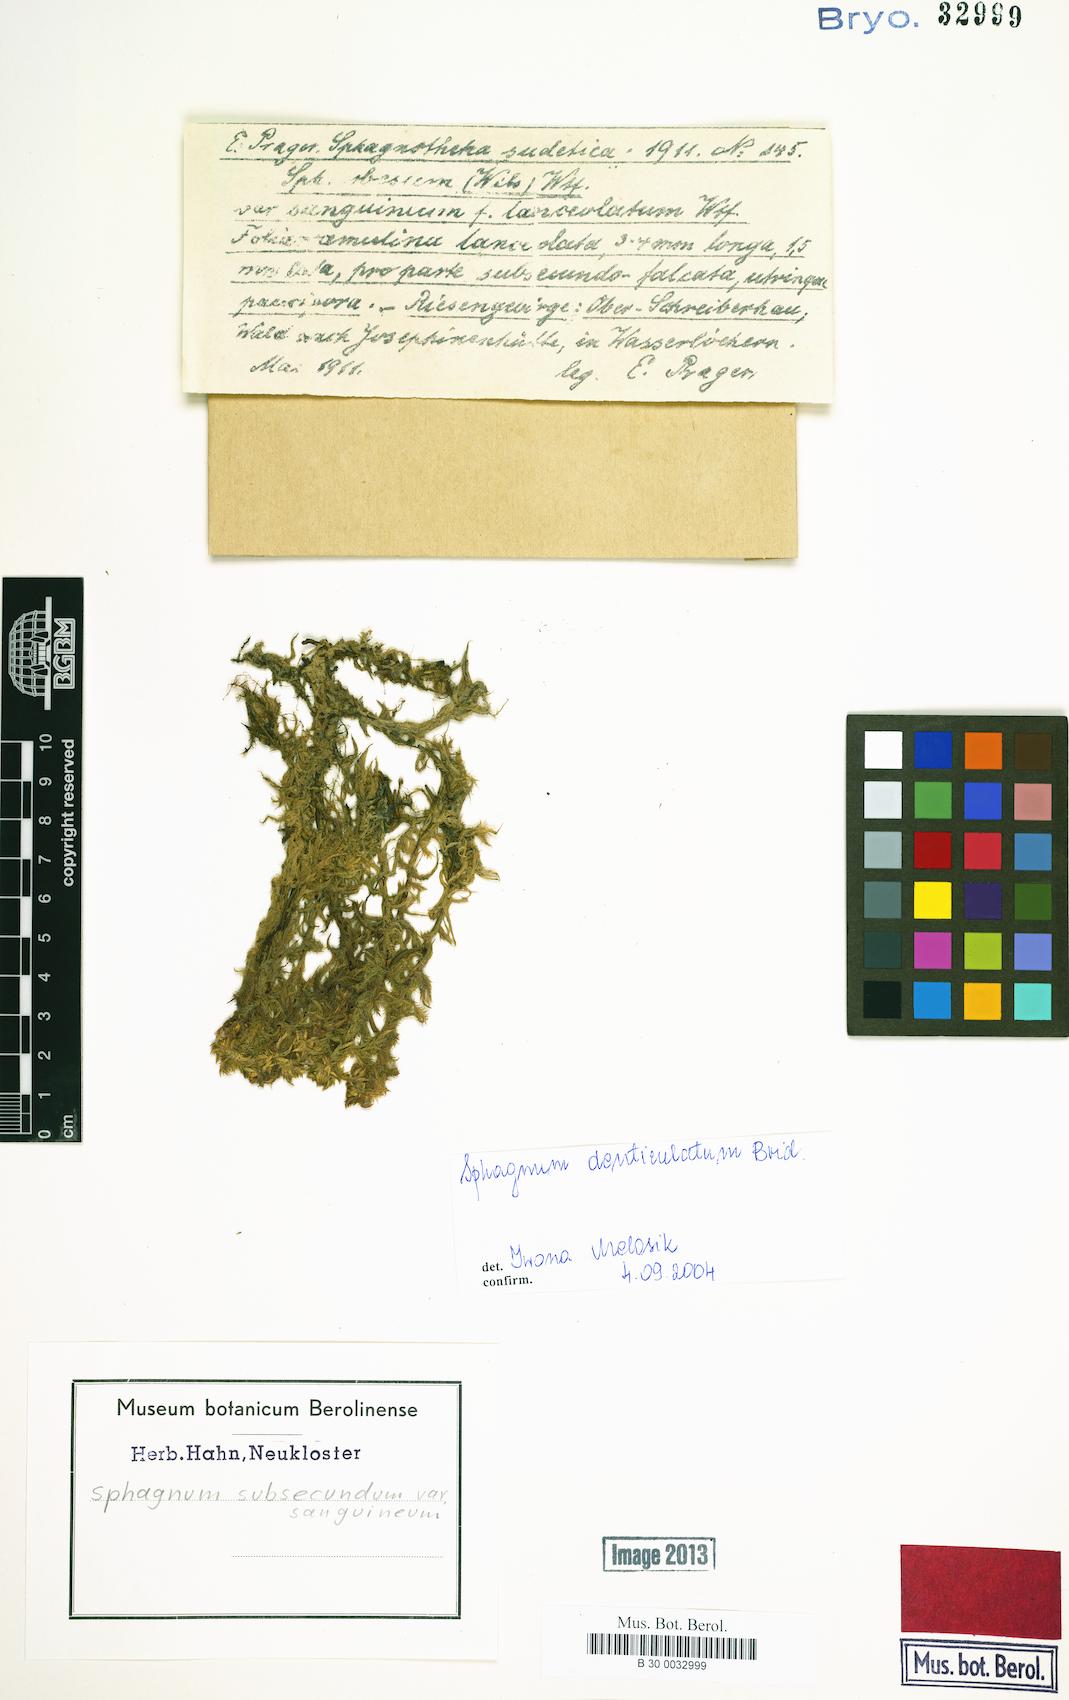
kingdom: Plantae
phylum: Bryophyta
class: Sphagnopsida
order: Sphagnales
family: Sphagnaceae
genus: Sphagnum
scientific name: Sphagnum subsecundum
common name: Orange peat moss
